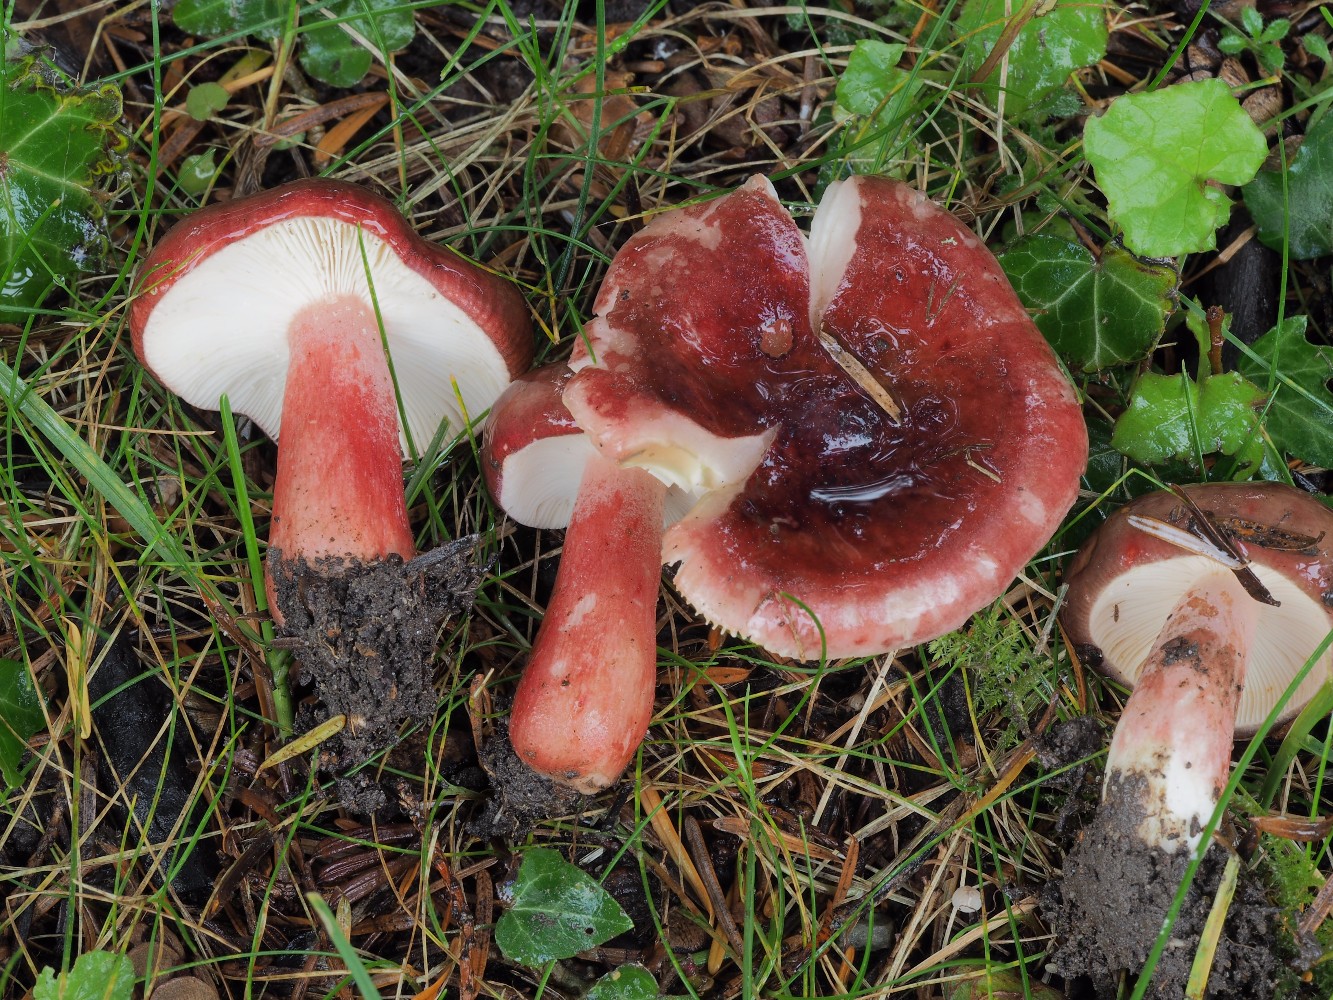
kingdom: Fungi
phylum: Basidiomycota
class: Agaricomycetes
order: Russulales
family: Russulaceae
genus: Russula
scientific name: Russula queletii
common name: Quélets skørhat
